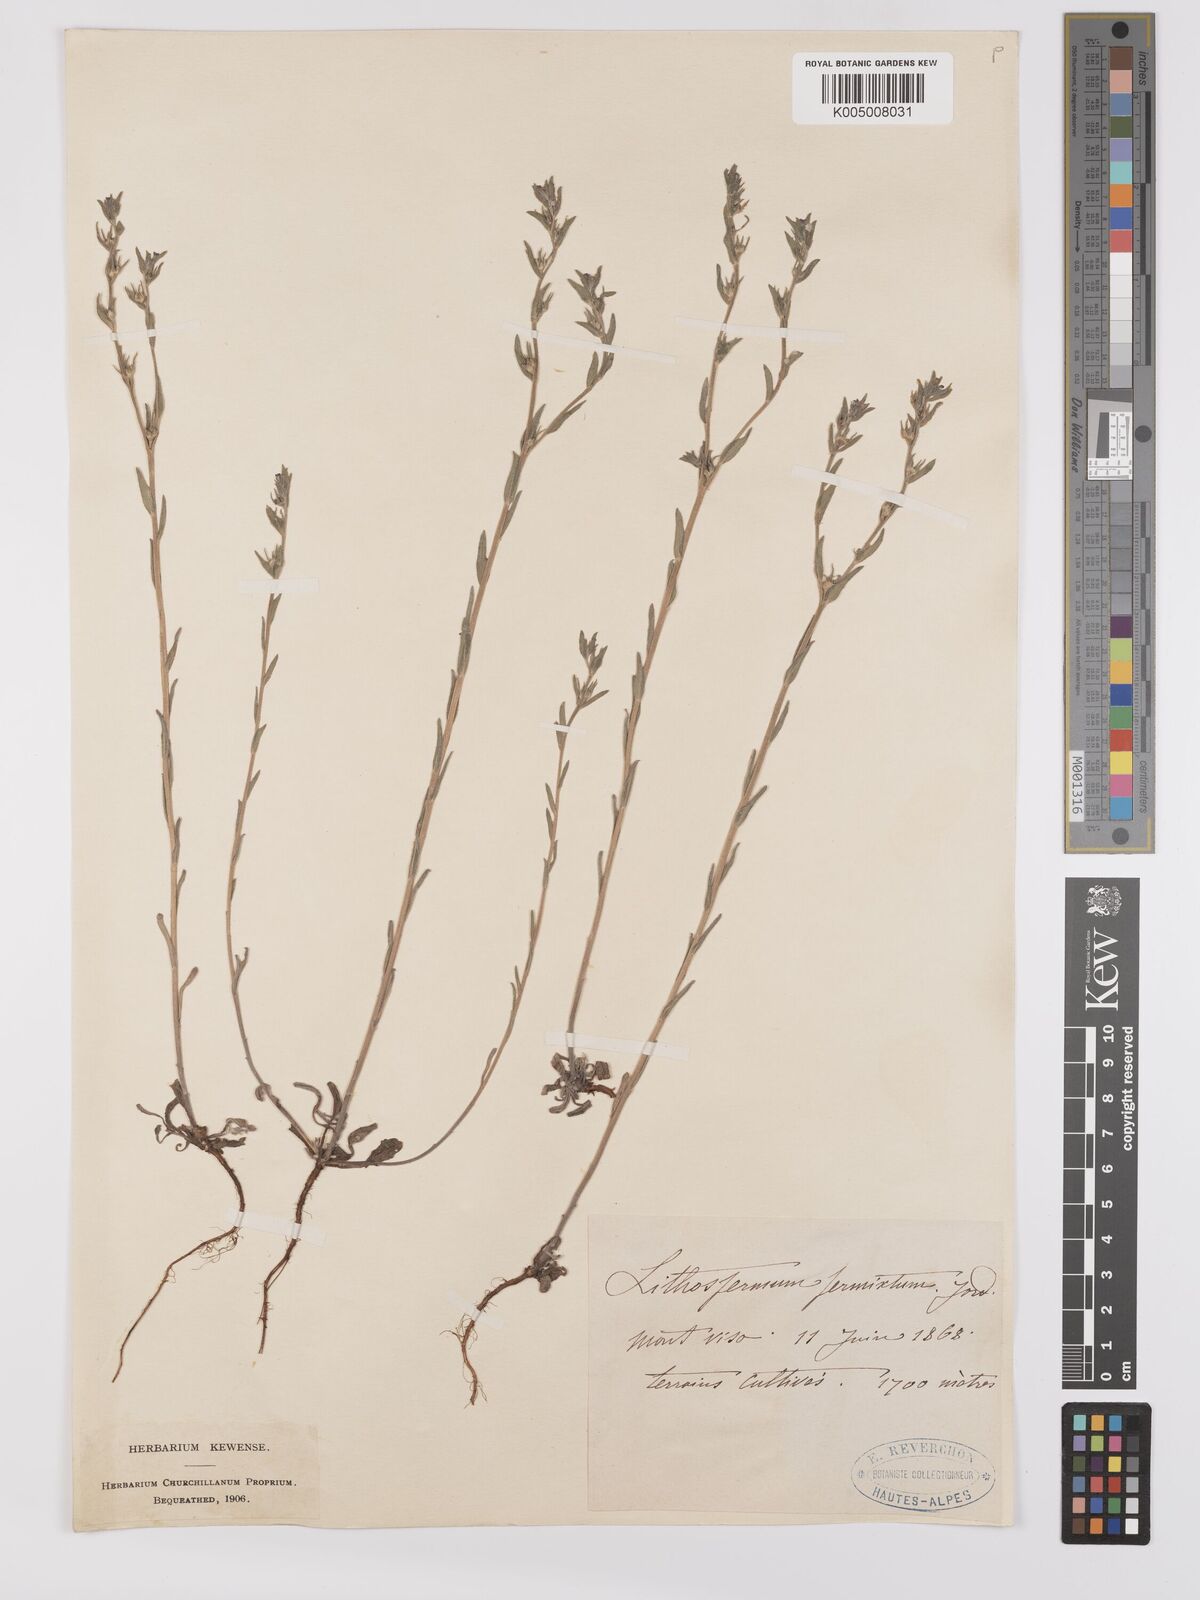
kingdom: Plantae
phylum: Tracheophyta
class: Magnoliopsida
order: Boraginales
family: Boraginaceae
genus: Buglossoides
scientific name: Buglossoides incrassata
